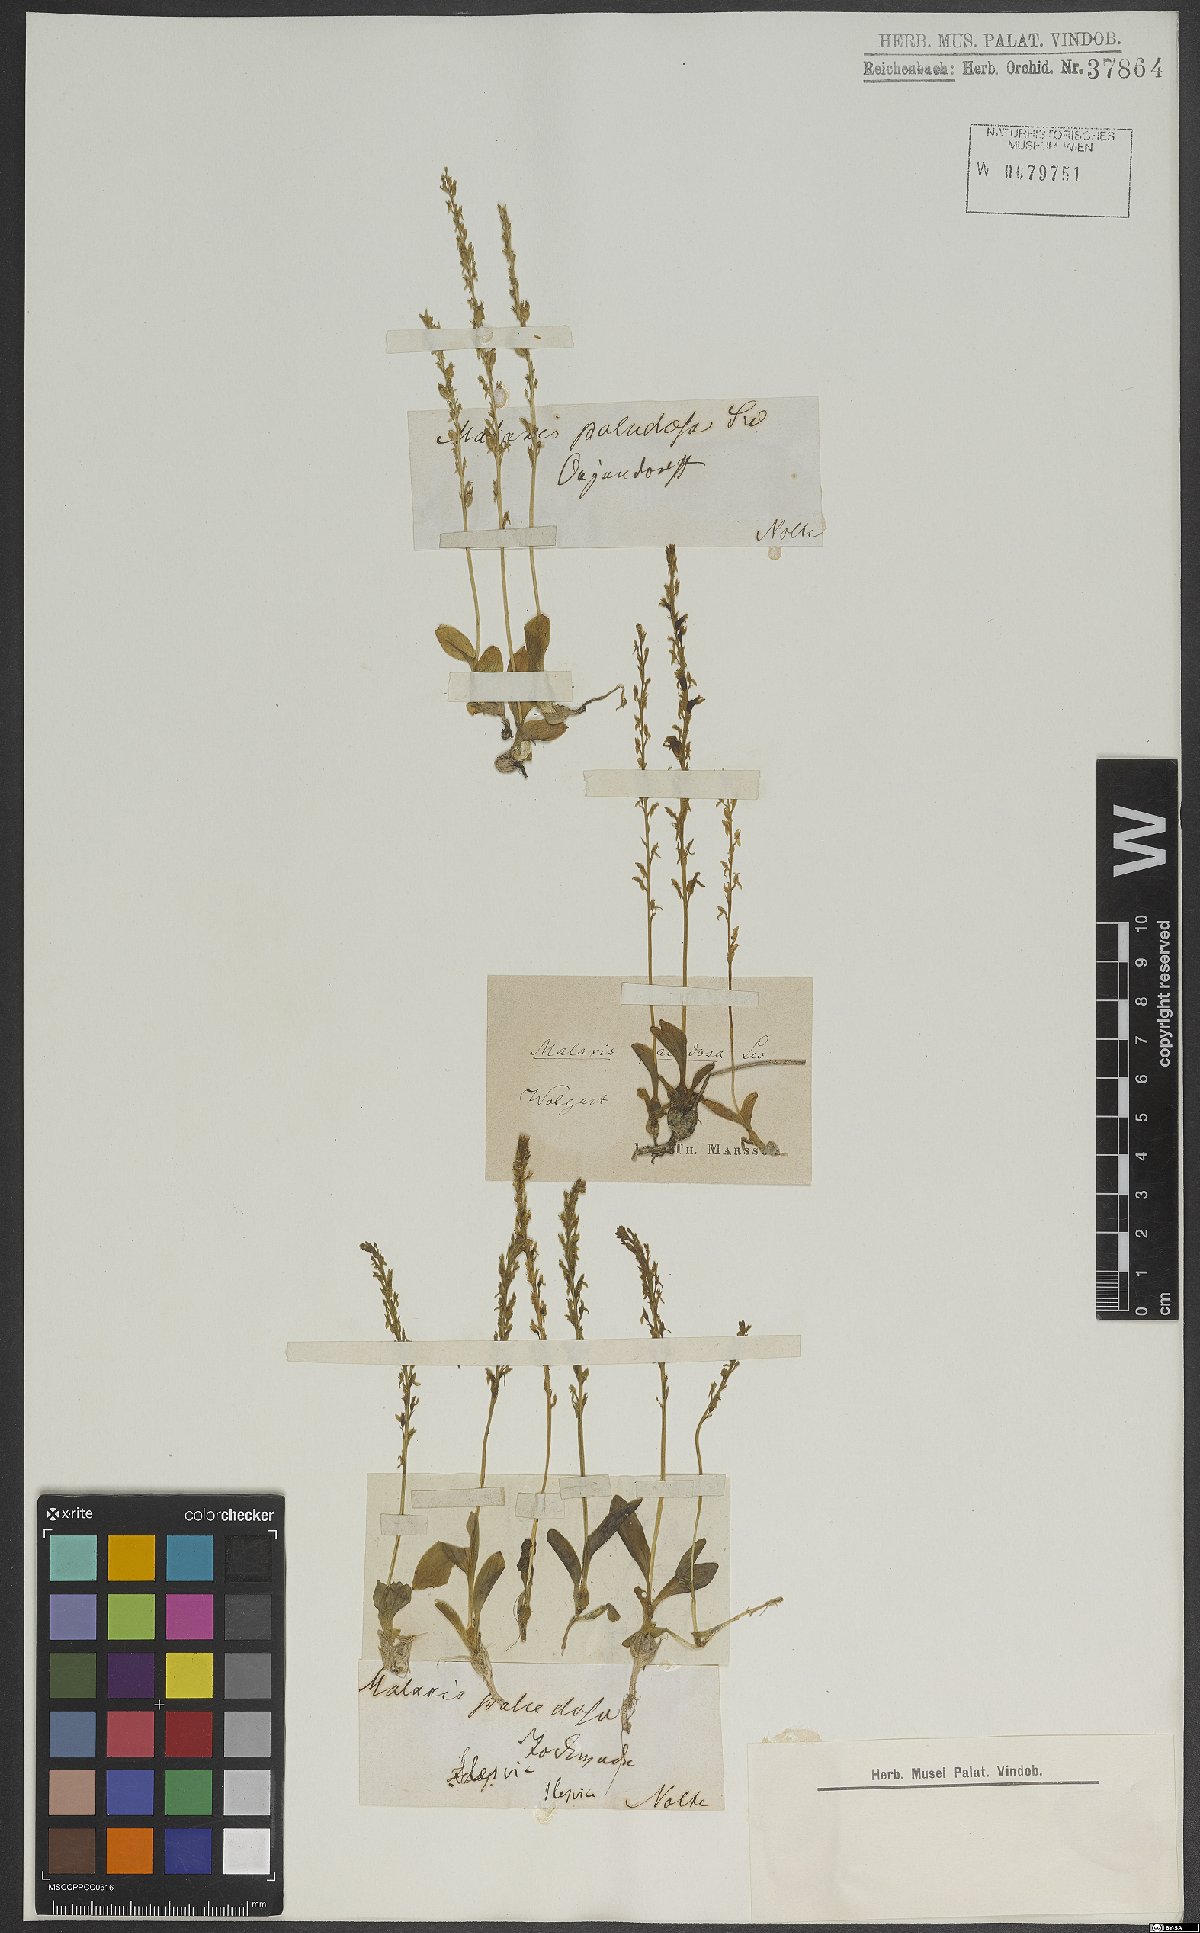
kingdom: Plantae
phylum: Tracheophyta
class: Liliopsida
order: Asparagales
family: Orchidaceae
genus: Hammarbya
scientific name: Hammarbya paludosa
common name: Bog orchid
